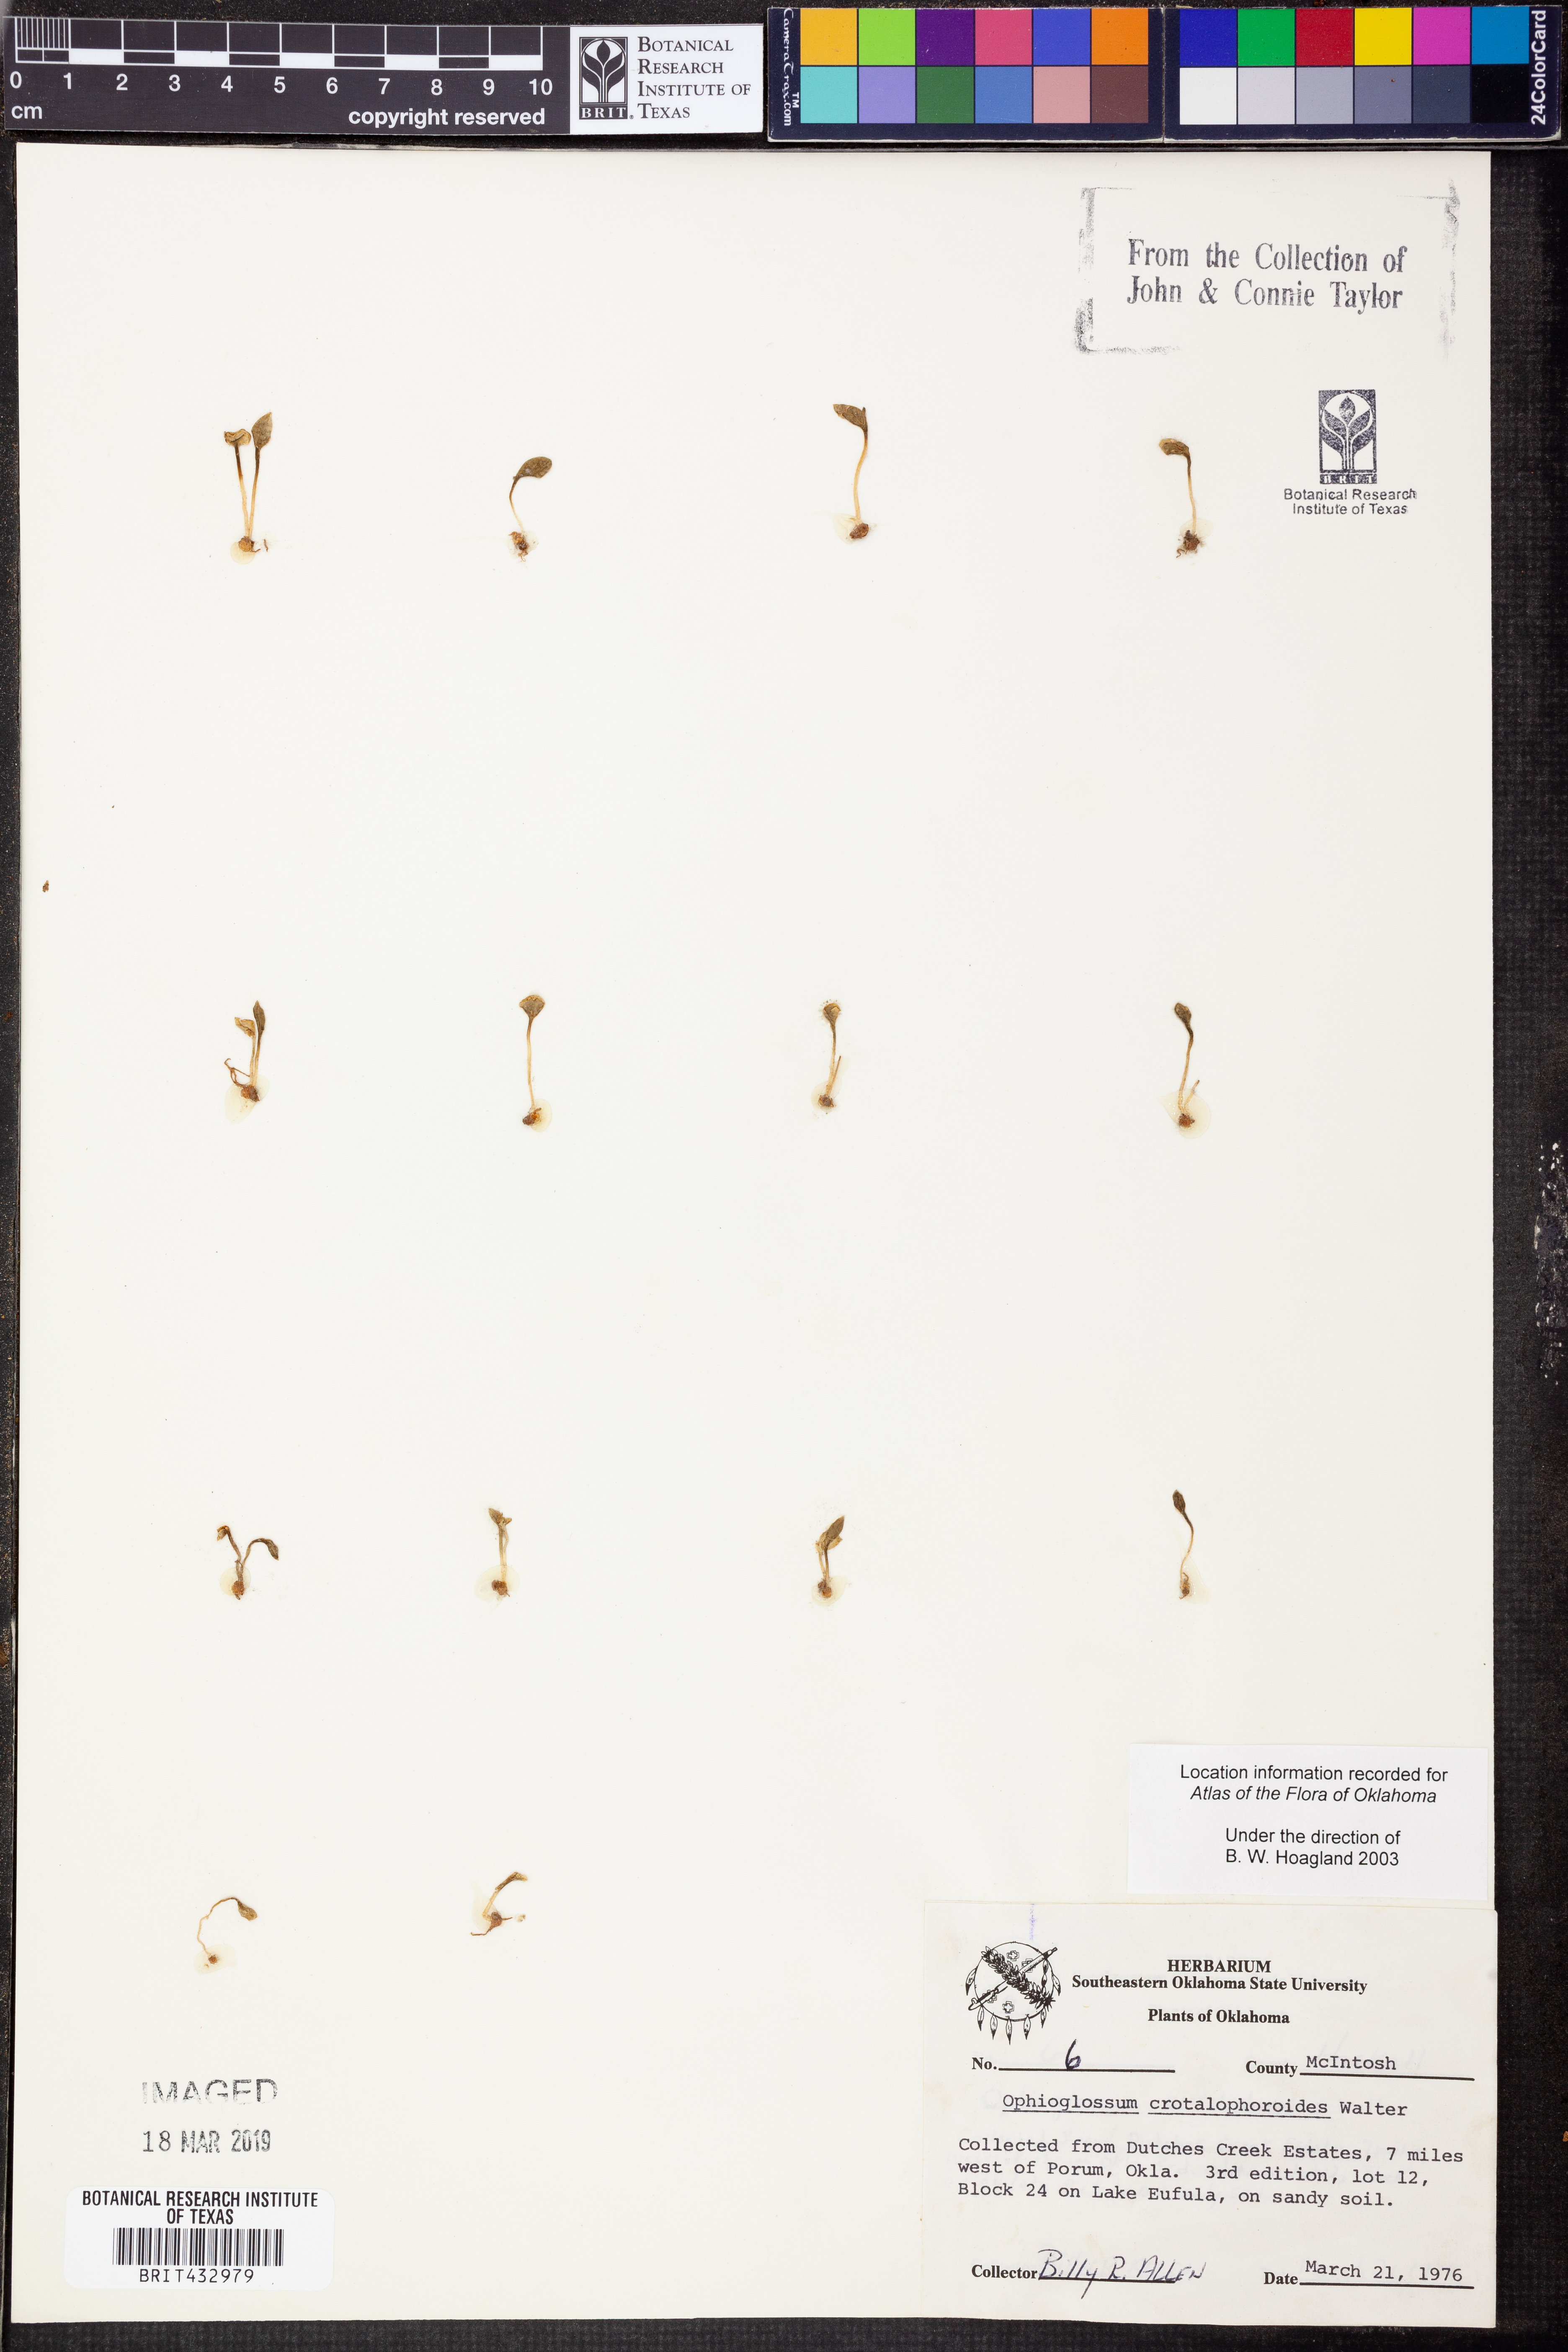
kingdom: Plantae
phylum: Tracheophyta
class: Polypodiopsida
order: Ophioglossales
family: Ophioglossaceae
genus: Ophioglossum
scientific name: Ophioglossum crotalophoroides
